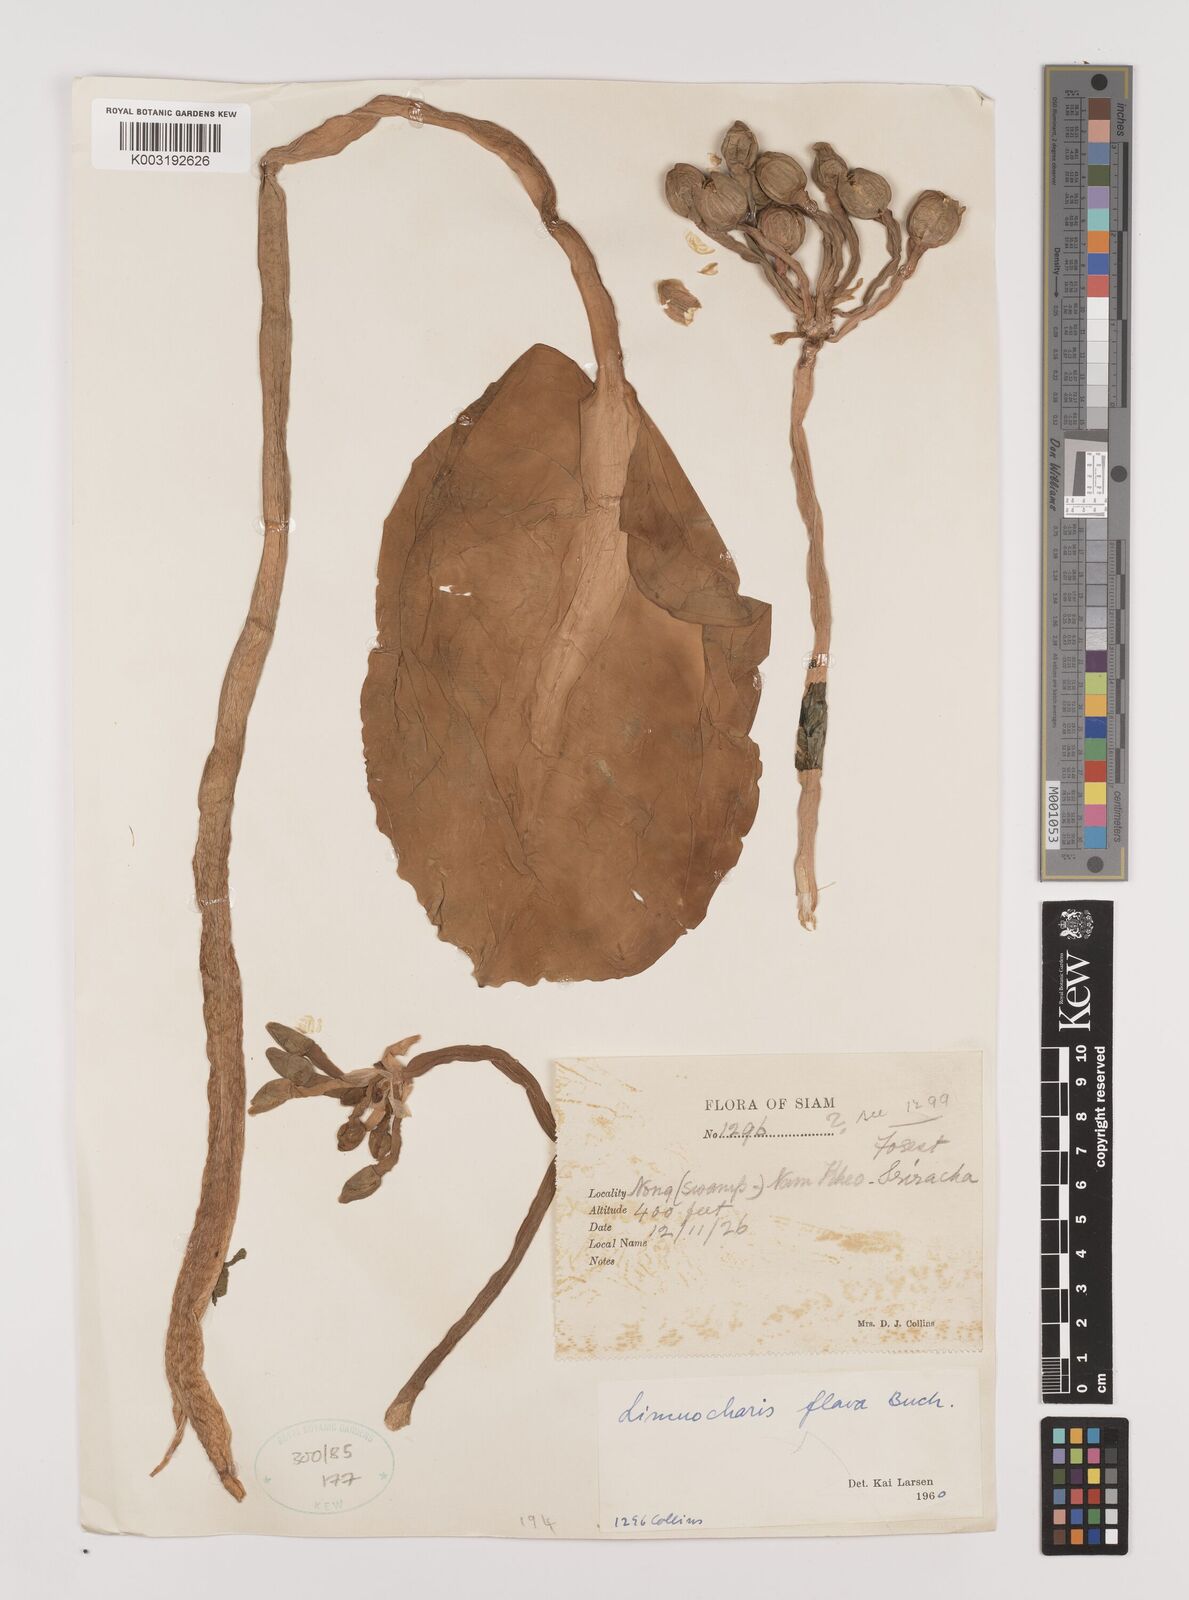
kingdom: Plantae
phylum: Tracheophyta
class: Liliopsida
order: Alismatales
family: Alismataceae
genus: Limnocharis
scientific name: Limnocharis flava
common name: Sawah-flower-rush
